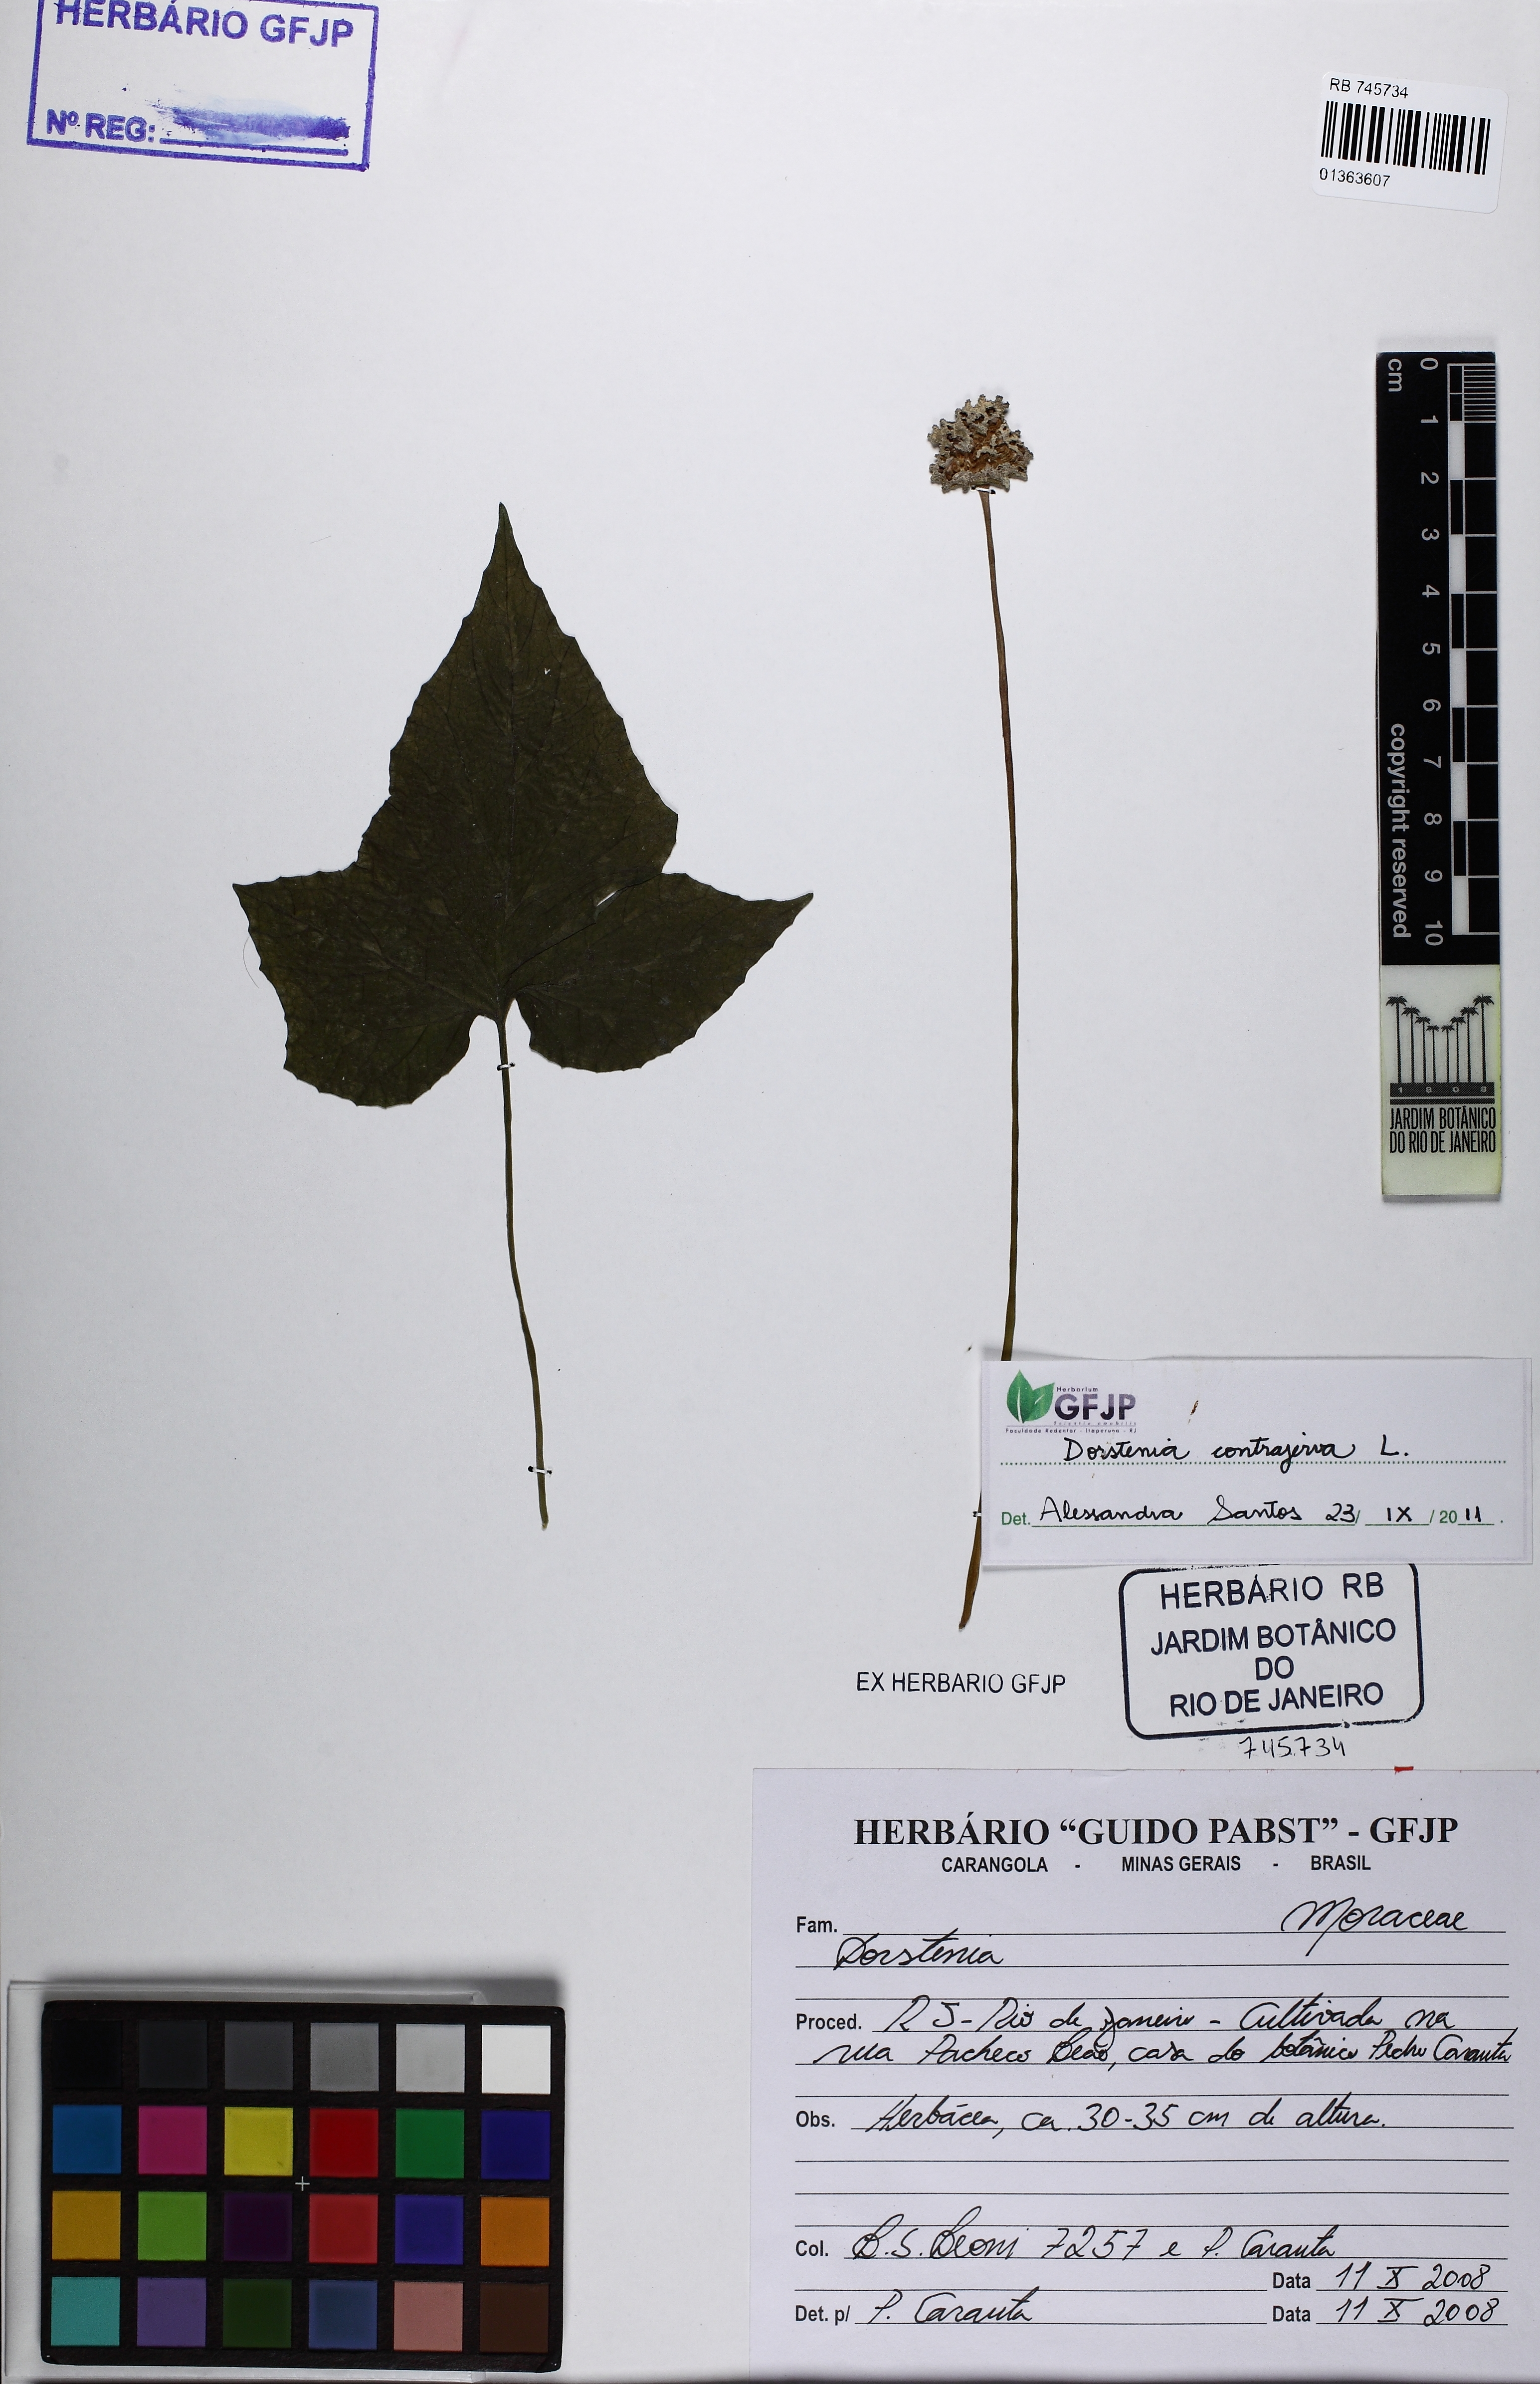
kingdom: Plantae
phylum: Tracheophyta
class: Magnoliopsida
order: Rosales
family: Moraceae
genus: Dorstenia
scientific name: Dorstenia contrajerva
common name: Tusilla
